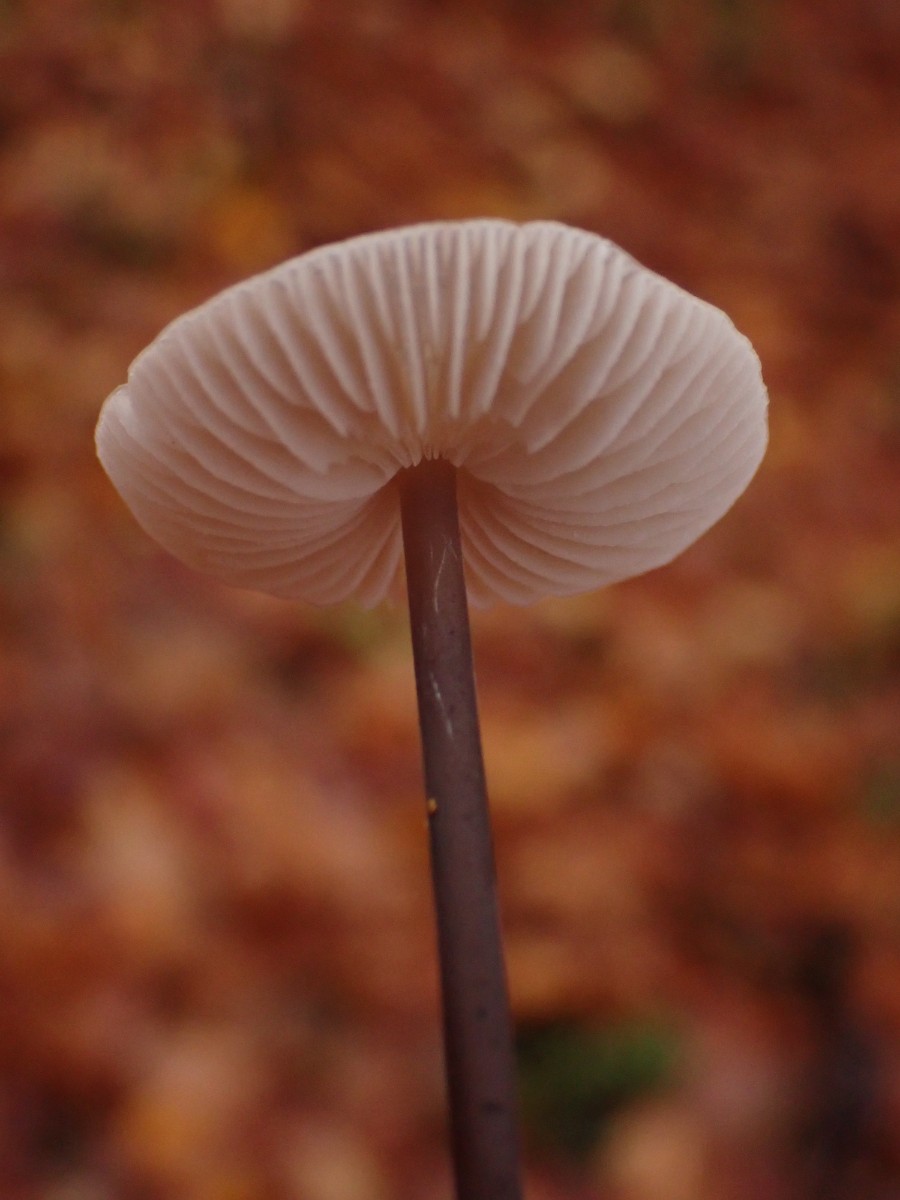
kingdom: Fungi
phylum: Basidiomycota
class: Agaricomycetes
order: Agaricales
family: Omphalotaceae
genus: Mycetinis
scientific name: Mycetinis alliaceus
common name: stor løghat
